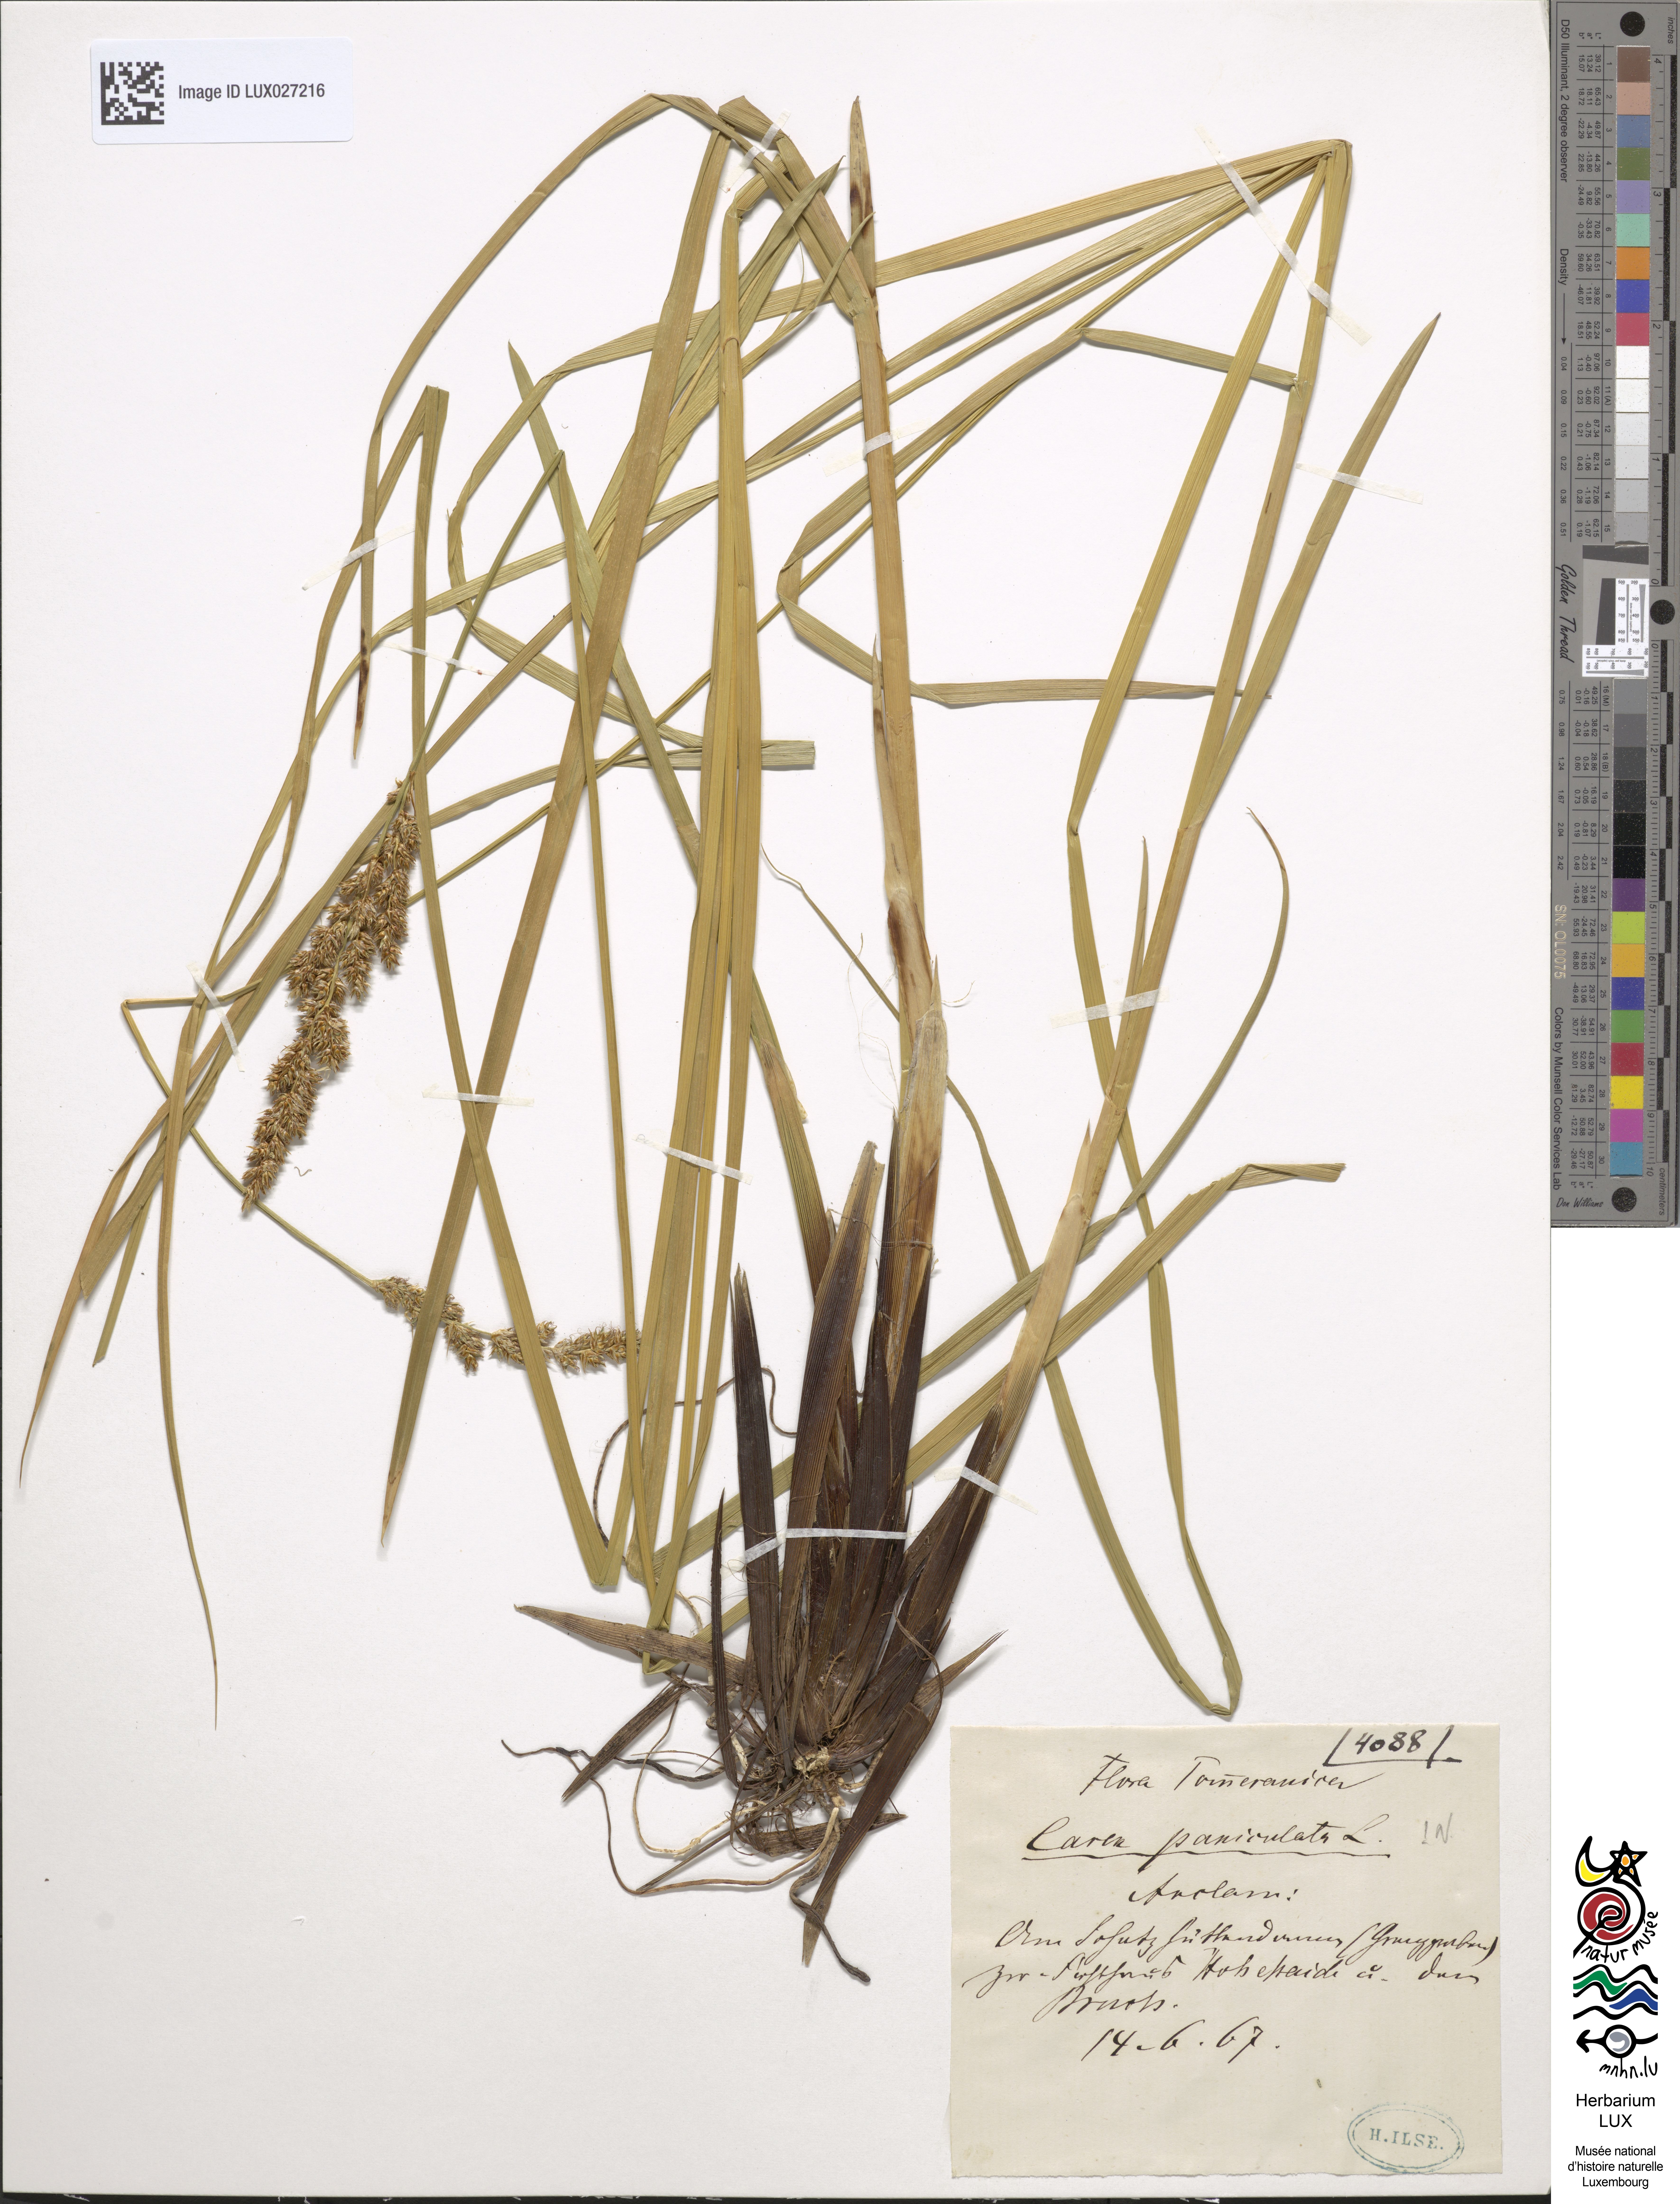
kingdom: Plantae
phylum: Tracheophyta
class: Liliopsida
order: Poales
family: Cyperaceae
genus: Carex
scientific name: Carex paniculata
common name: Greater tussock-sedge
